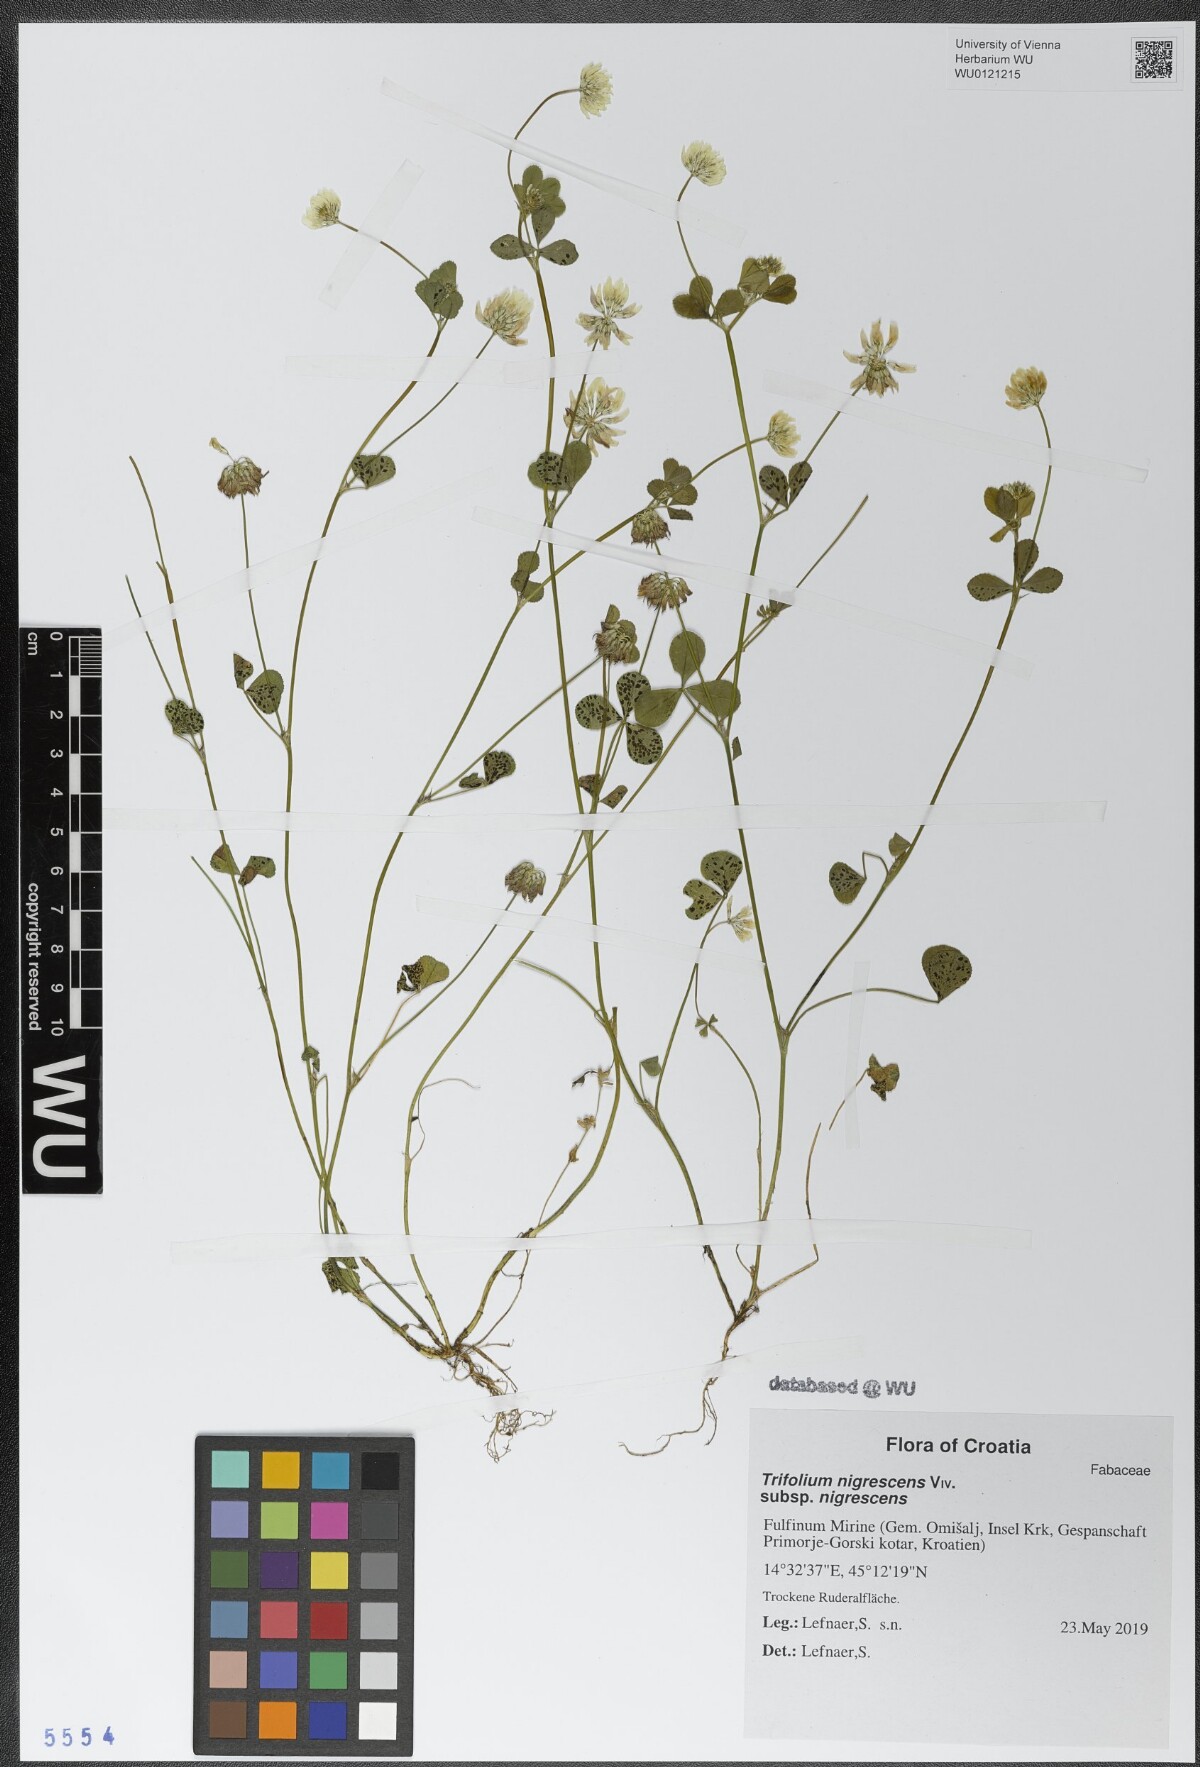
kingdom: Plantae
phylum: Tracheophyta
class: Magnoliopsida
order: Fabales
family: Fabaceae
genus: Trifolium
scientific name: Trifolium nigrescens
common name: Small white clover
